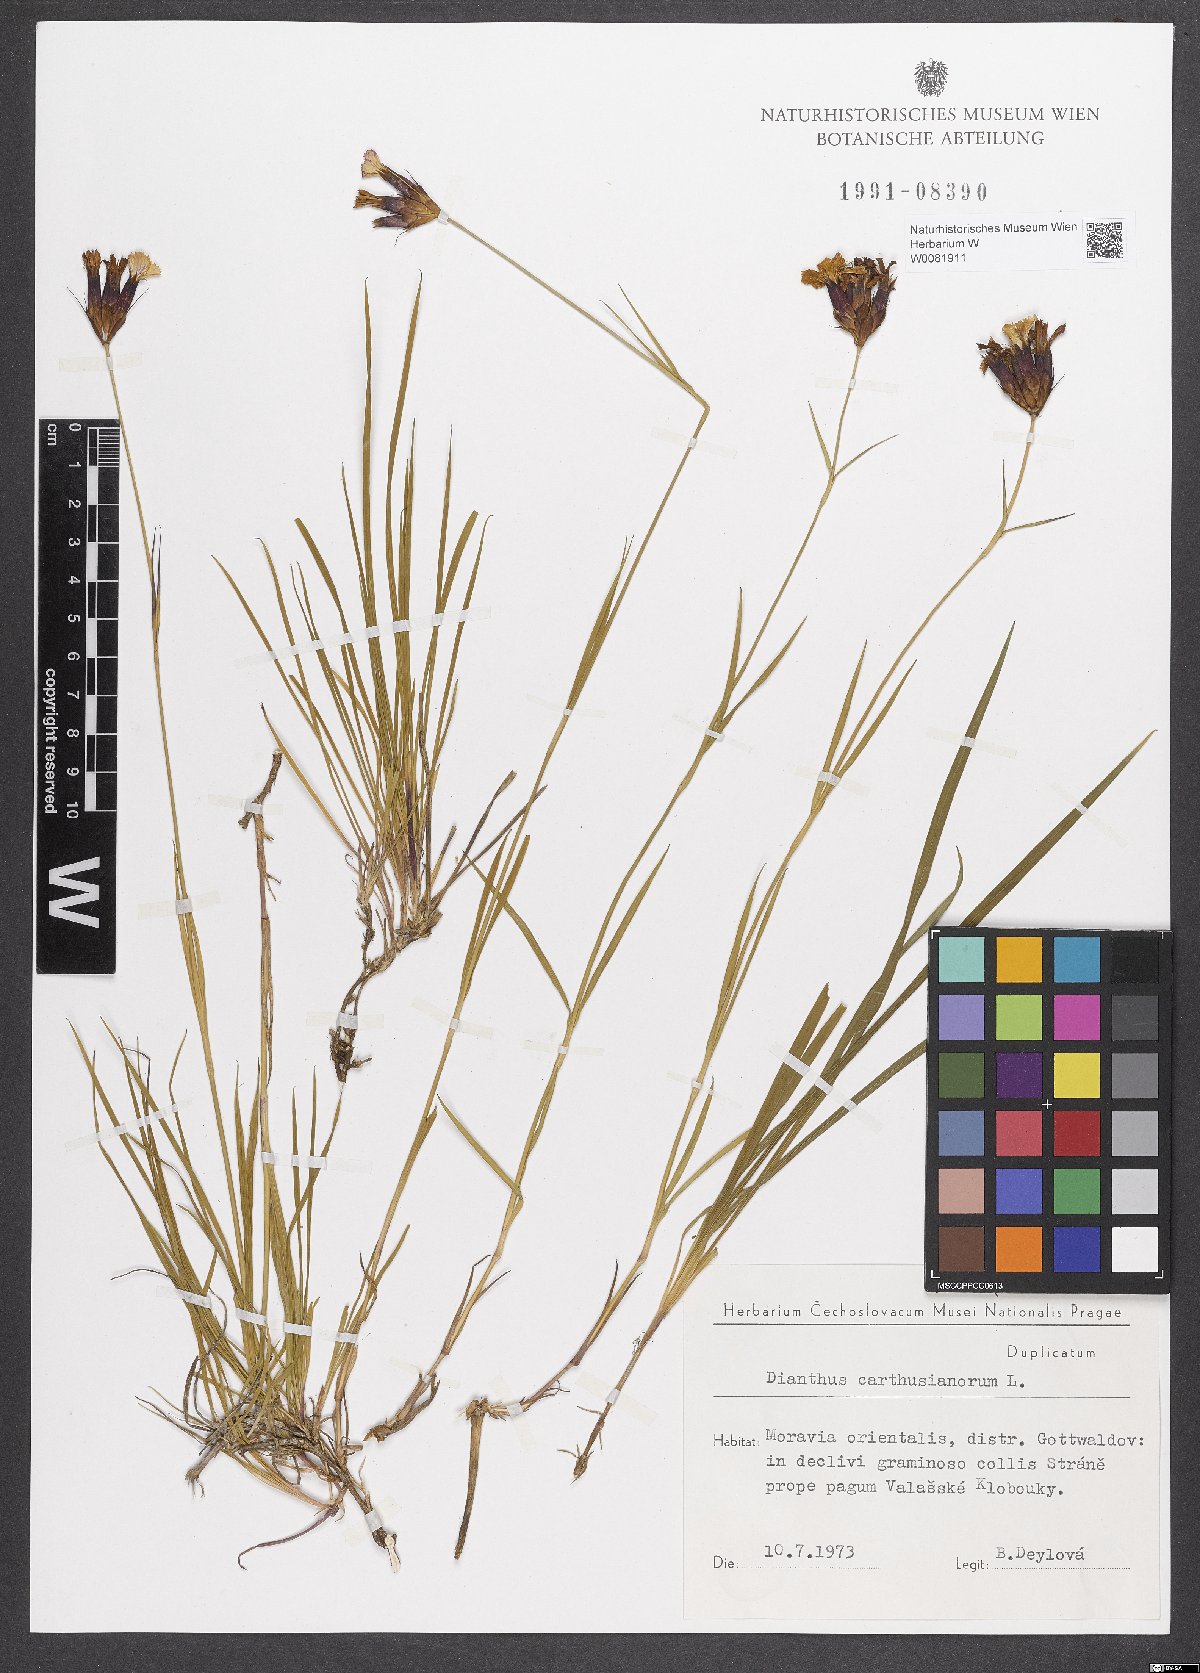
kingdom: Plantae
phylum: Tracheophyta
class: Magnoliopsida
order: Caryophyllales
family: Caryophyllaceae
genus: Dianthus
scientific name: Dianthus carthusianorum
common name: Carthusian pink
